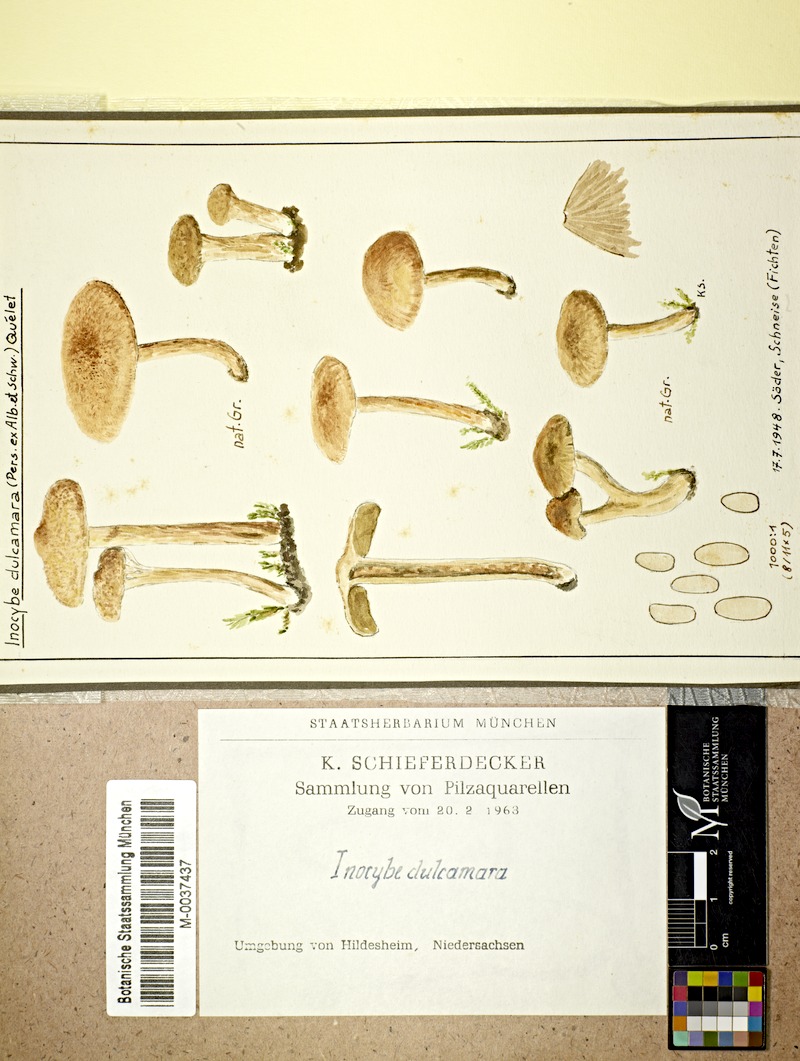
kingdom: Fungi
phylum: Basidiomycota
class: Agaricomycetes
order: Agaricales
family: Inocybaceae
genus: Inocybe
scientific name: Inocybe
